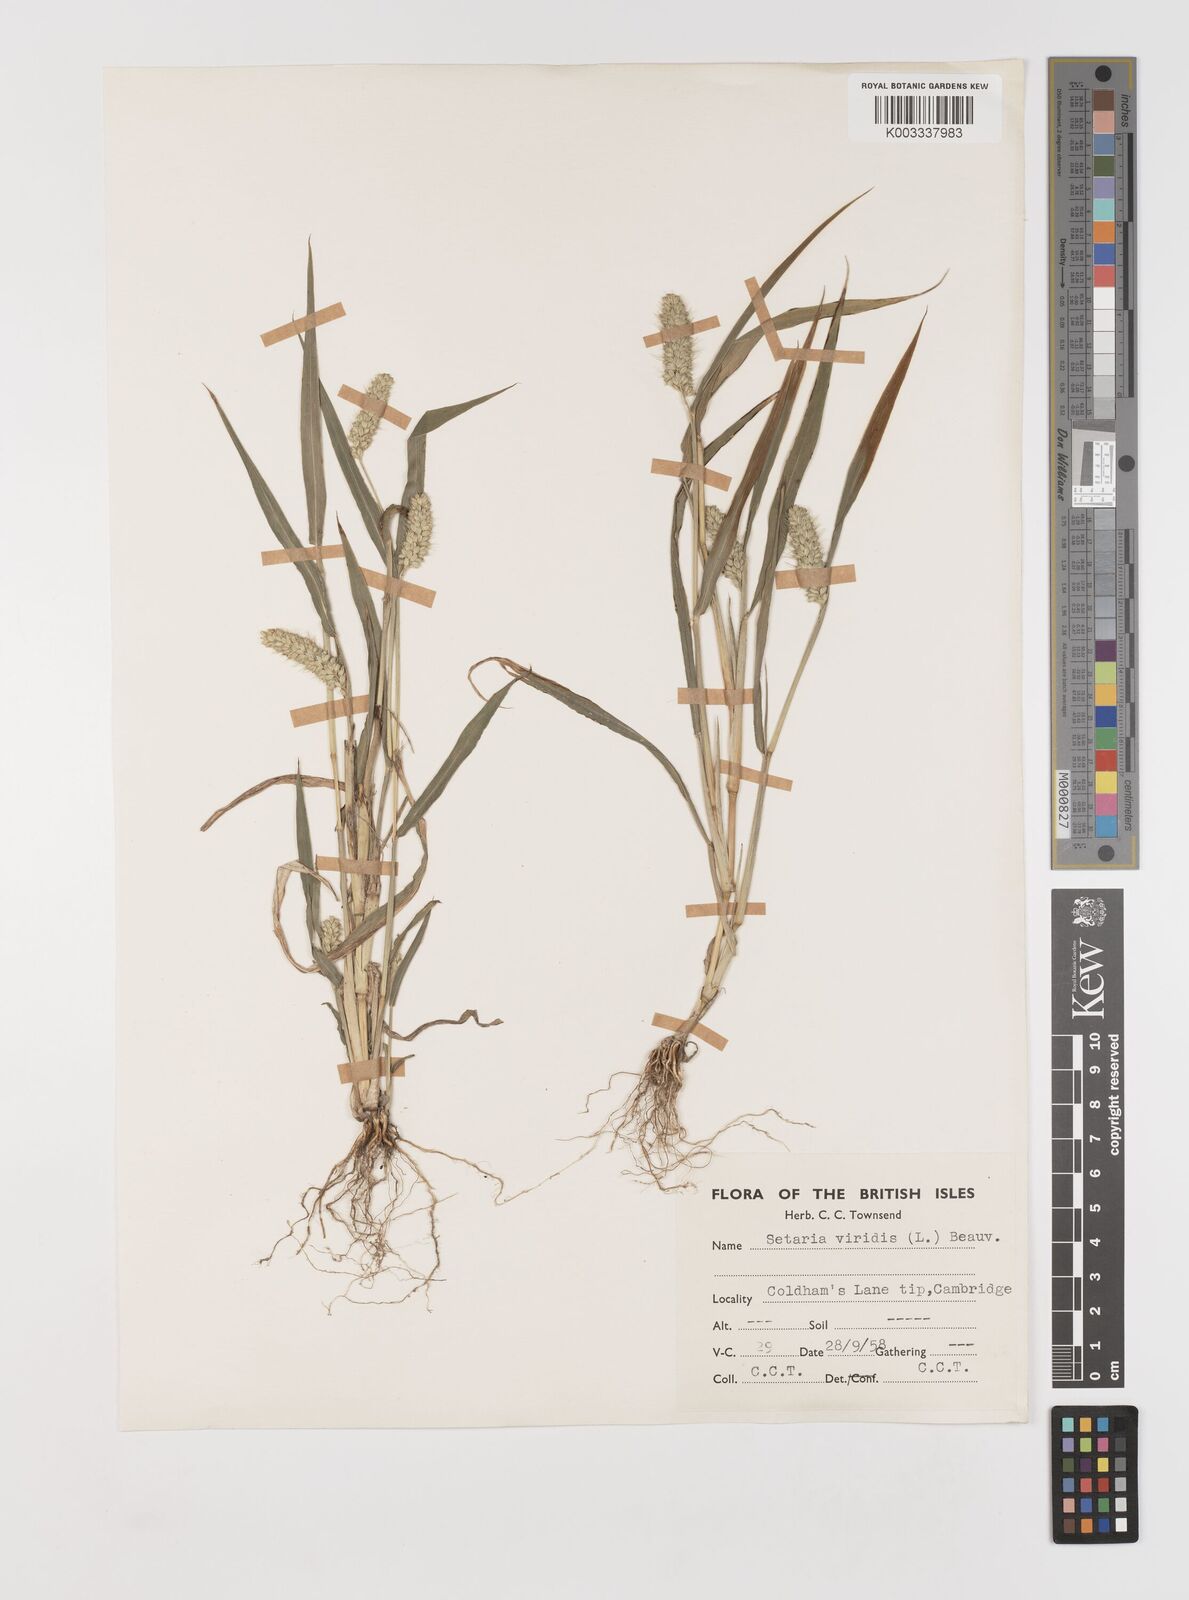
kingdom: Plantae
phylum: Tracheophyta
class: Liliopsida
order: Poales
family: Poaceae
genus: Setaria
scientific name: Setaria italica
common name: Foxtail bristle-grass
